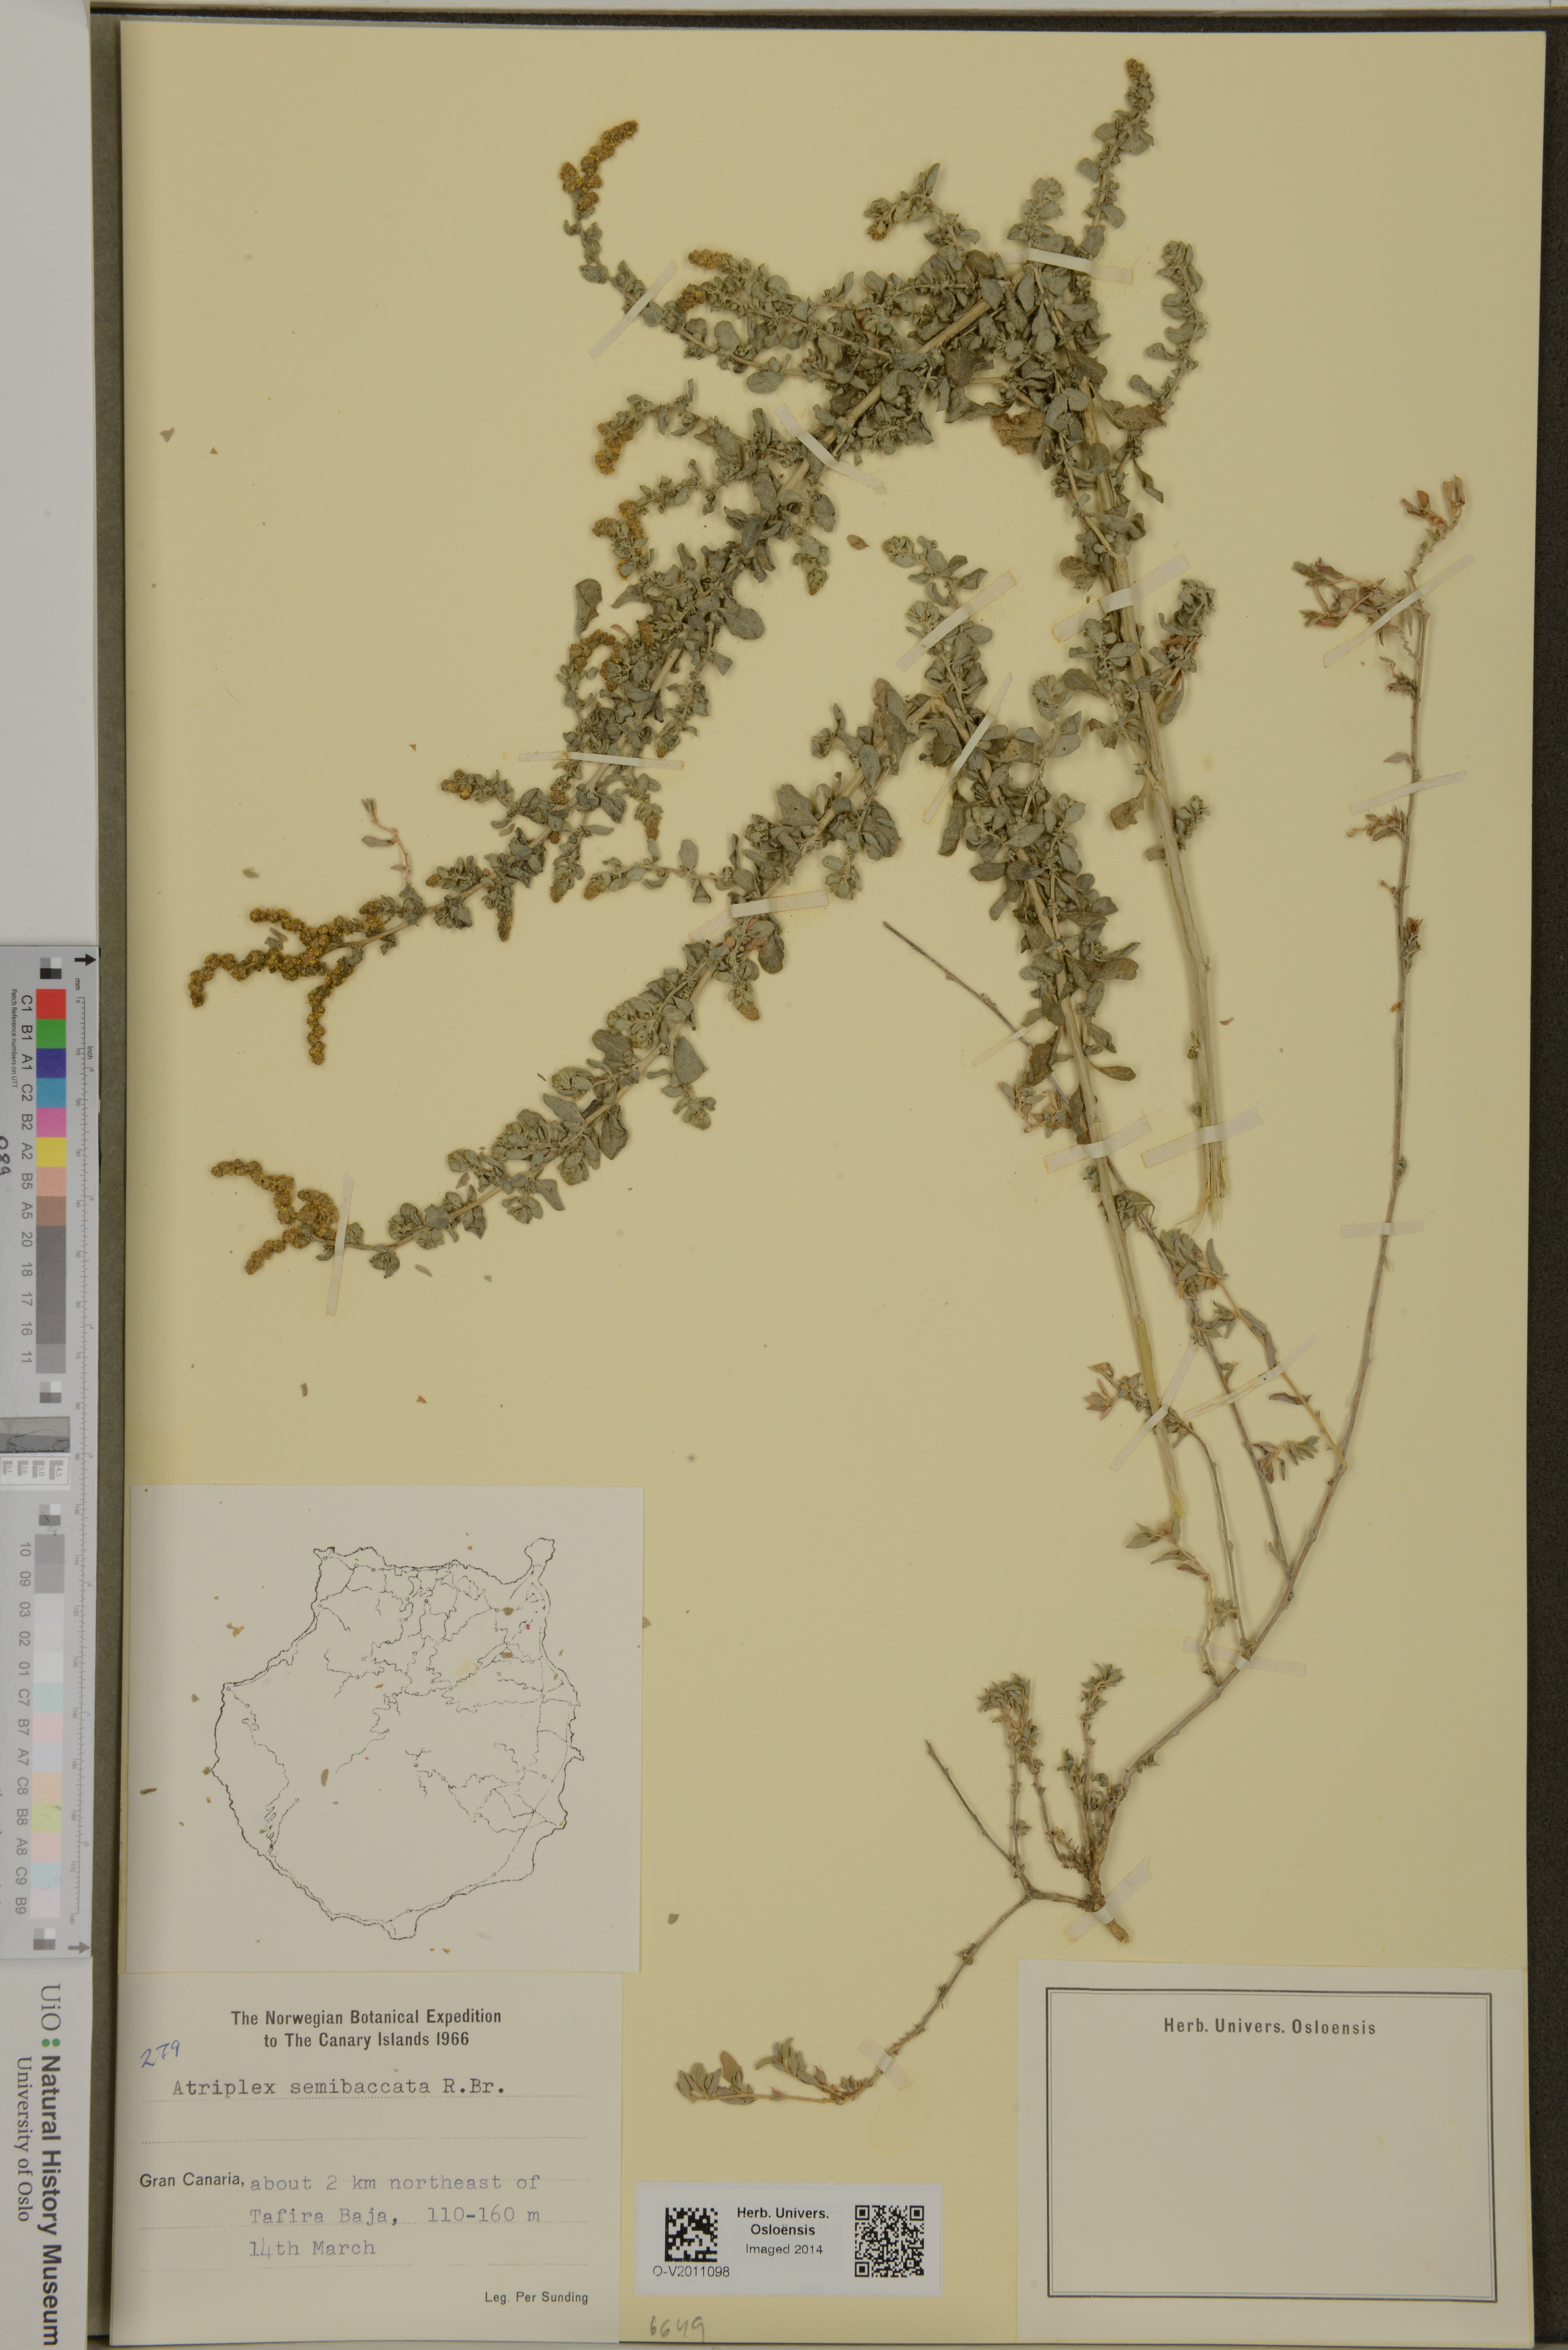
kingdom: Plantae
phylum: Tracheophyta
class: Magnoliopsida
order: Caryophyllales
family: Amaranthaceae
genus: Atriplex
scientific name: Atriplex semibaccata
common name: Australian saltbush
